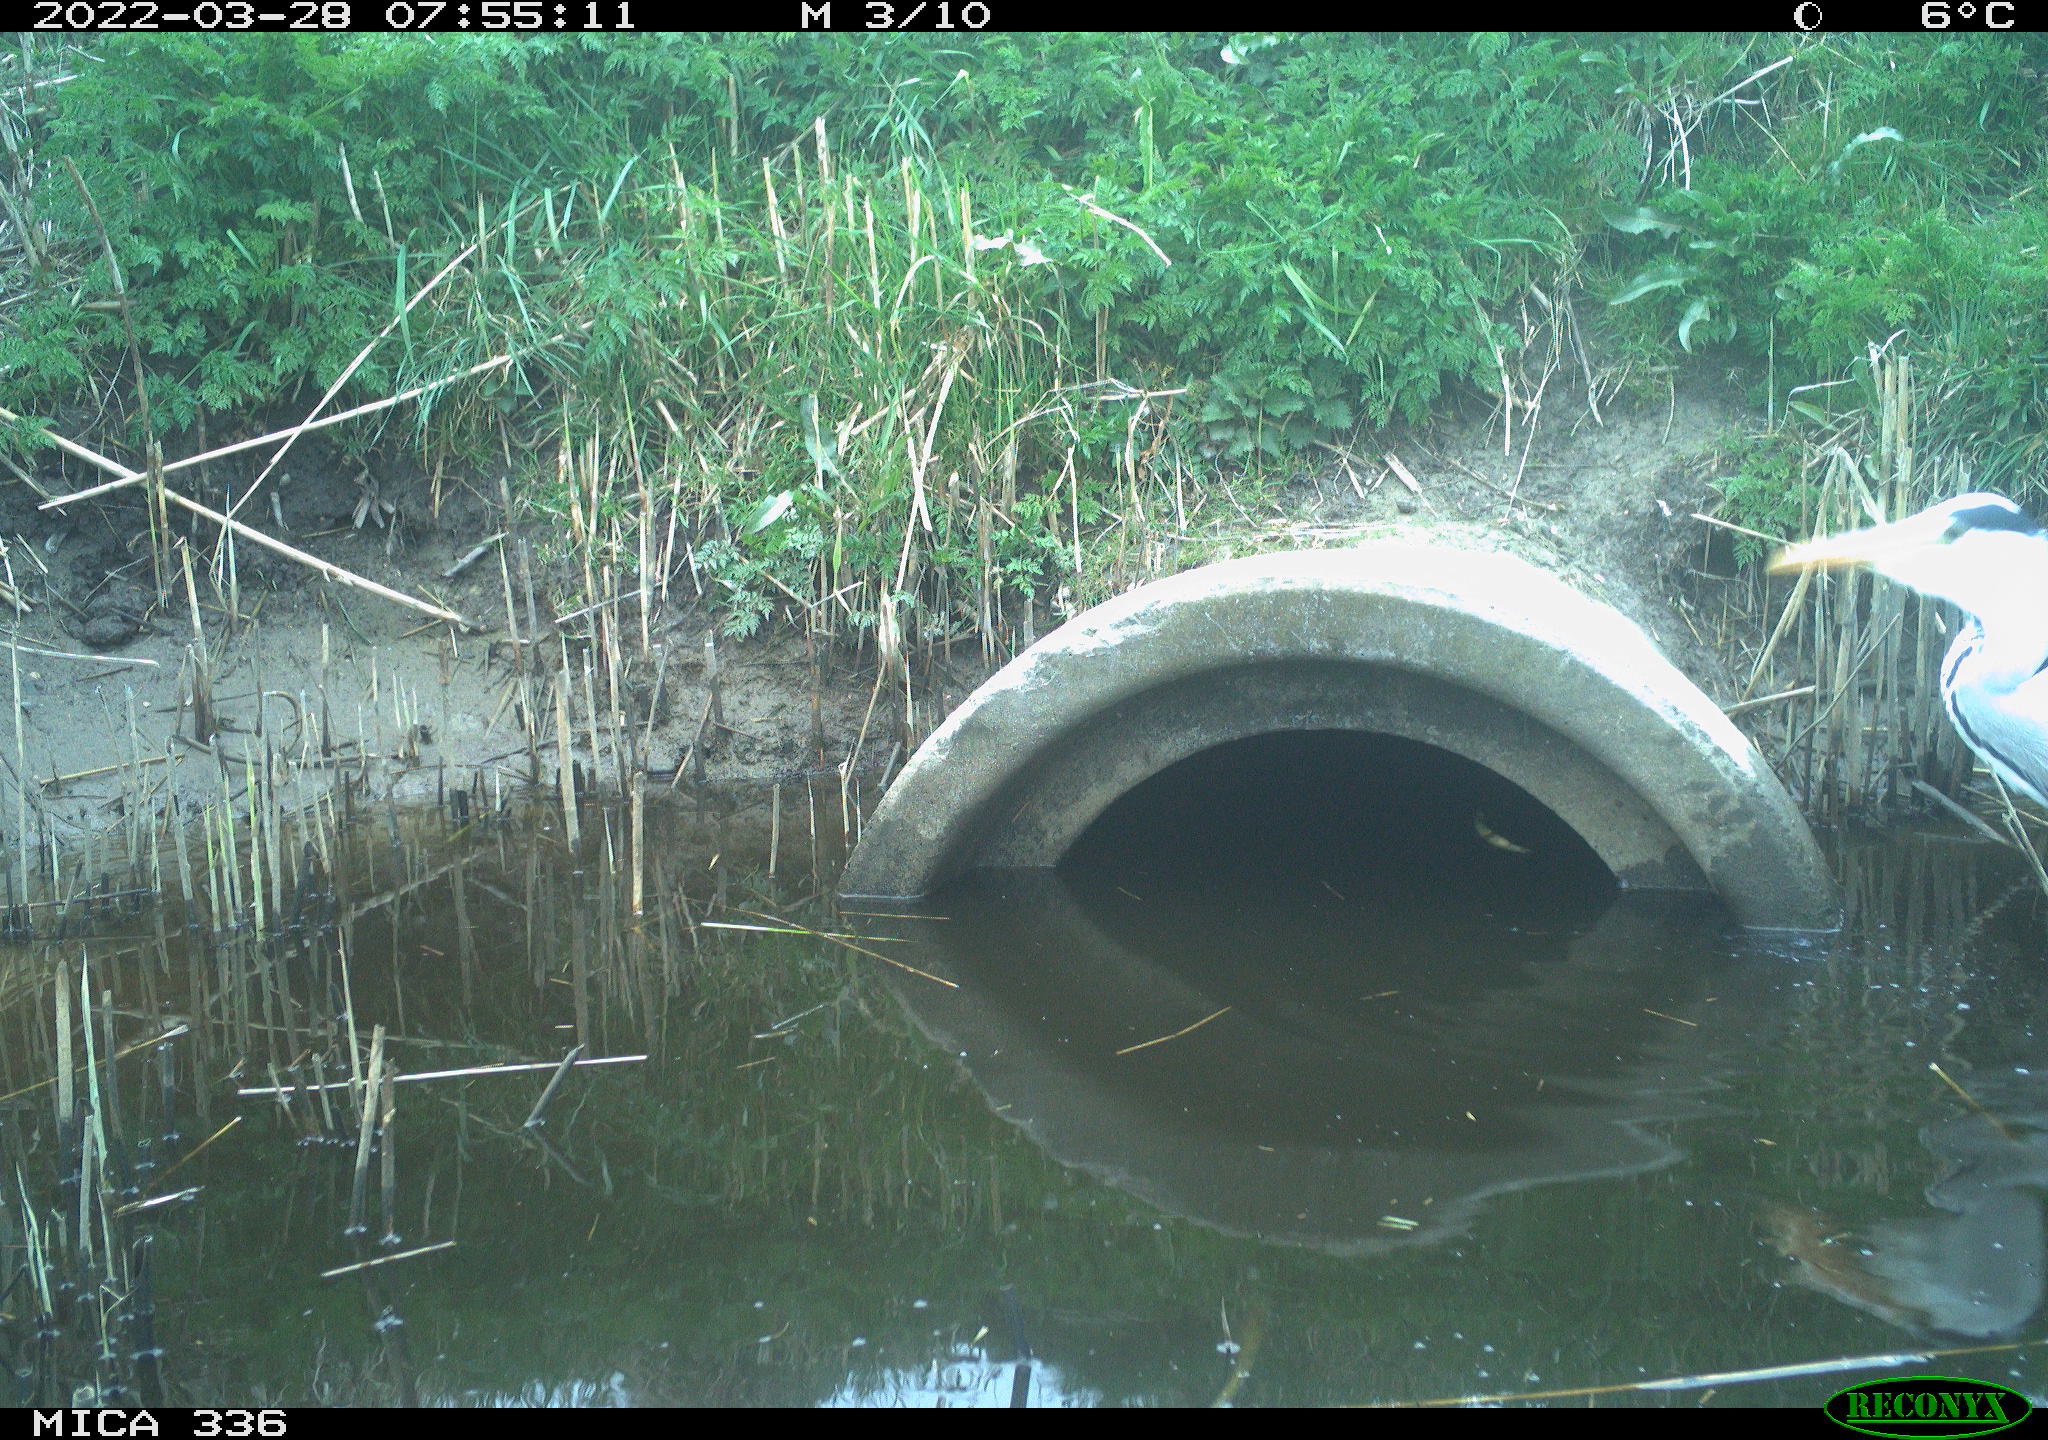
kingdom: Animalia
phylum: Chordata
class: Aves
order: Pelecaniformes
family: Ardeidae
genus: Ardea
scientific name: Ardea cinerea
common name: Grey heron
